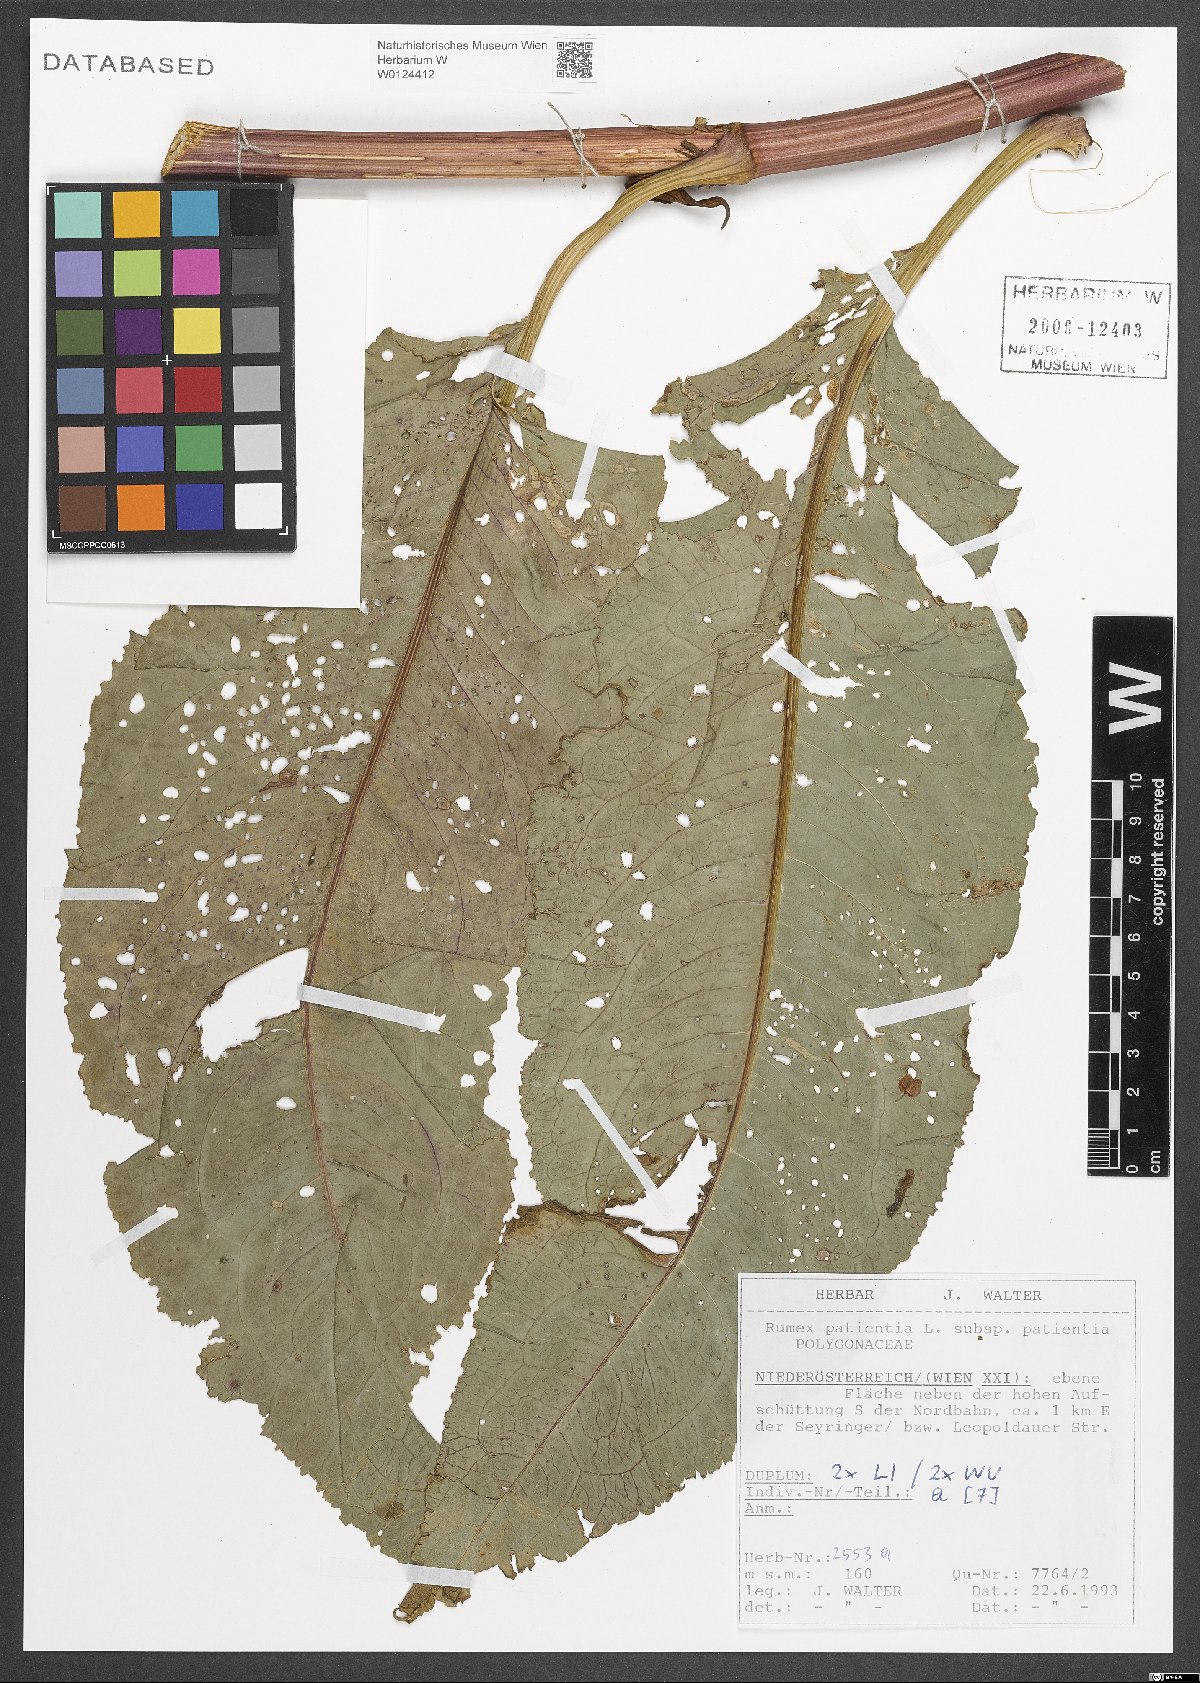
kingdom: Plantae
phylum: Tracheophyta
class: Magnoliopsida
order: Caryophyllales
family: Polygonaceae
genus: Rumex
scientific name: Rumex patientia
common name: Patience dock
